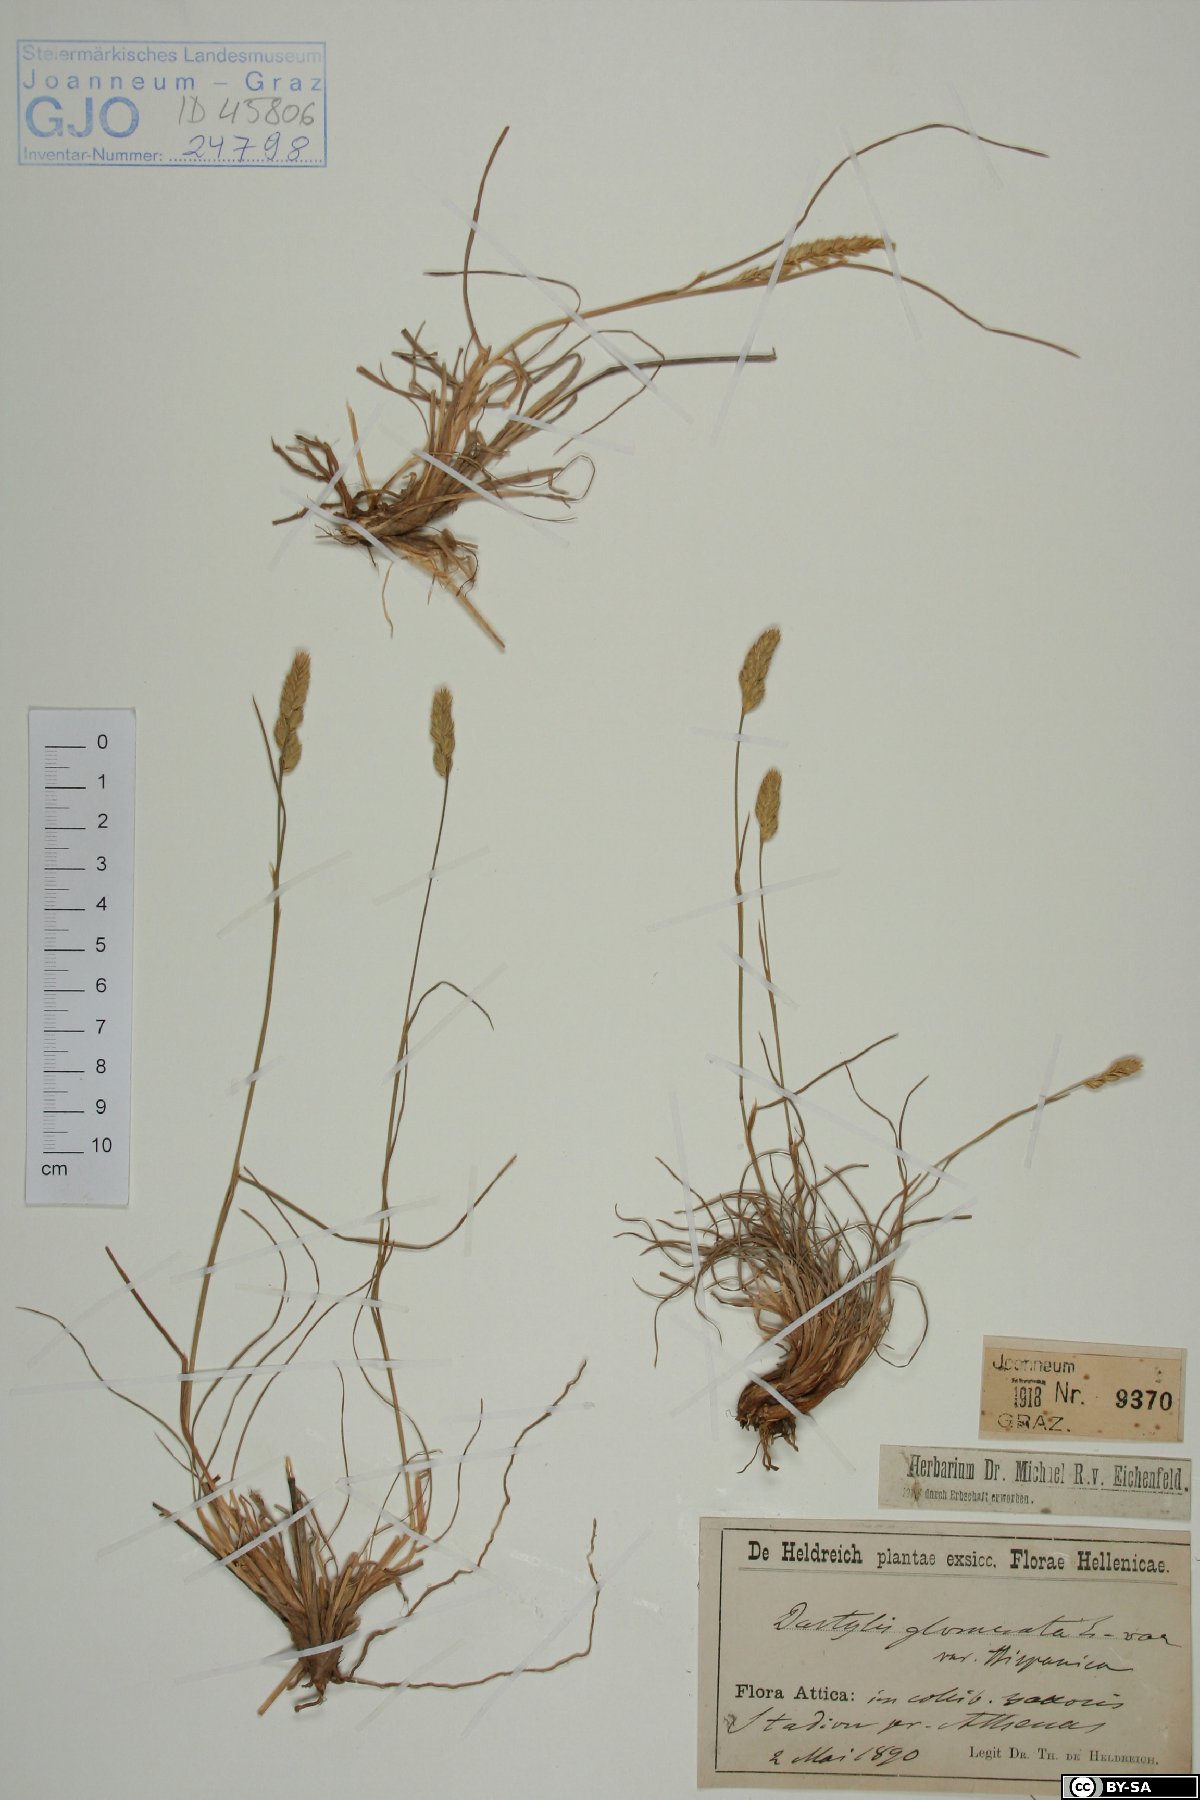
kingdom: Plantae
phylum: Tracheophyta
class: Liliopsida
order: Poales
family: Poaceae
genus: Dactylis
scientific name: Dactylis glomerata
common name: Orchardgrass
